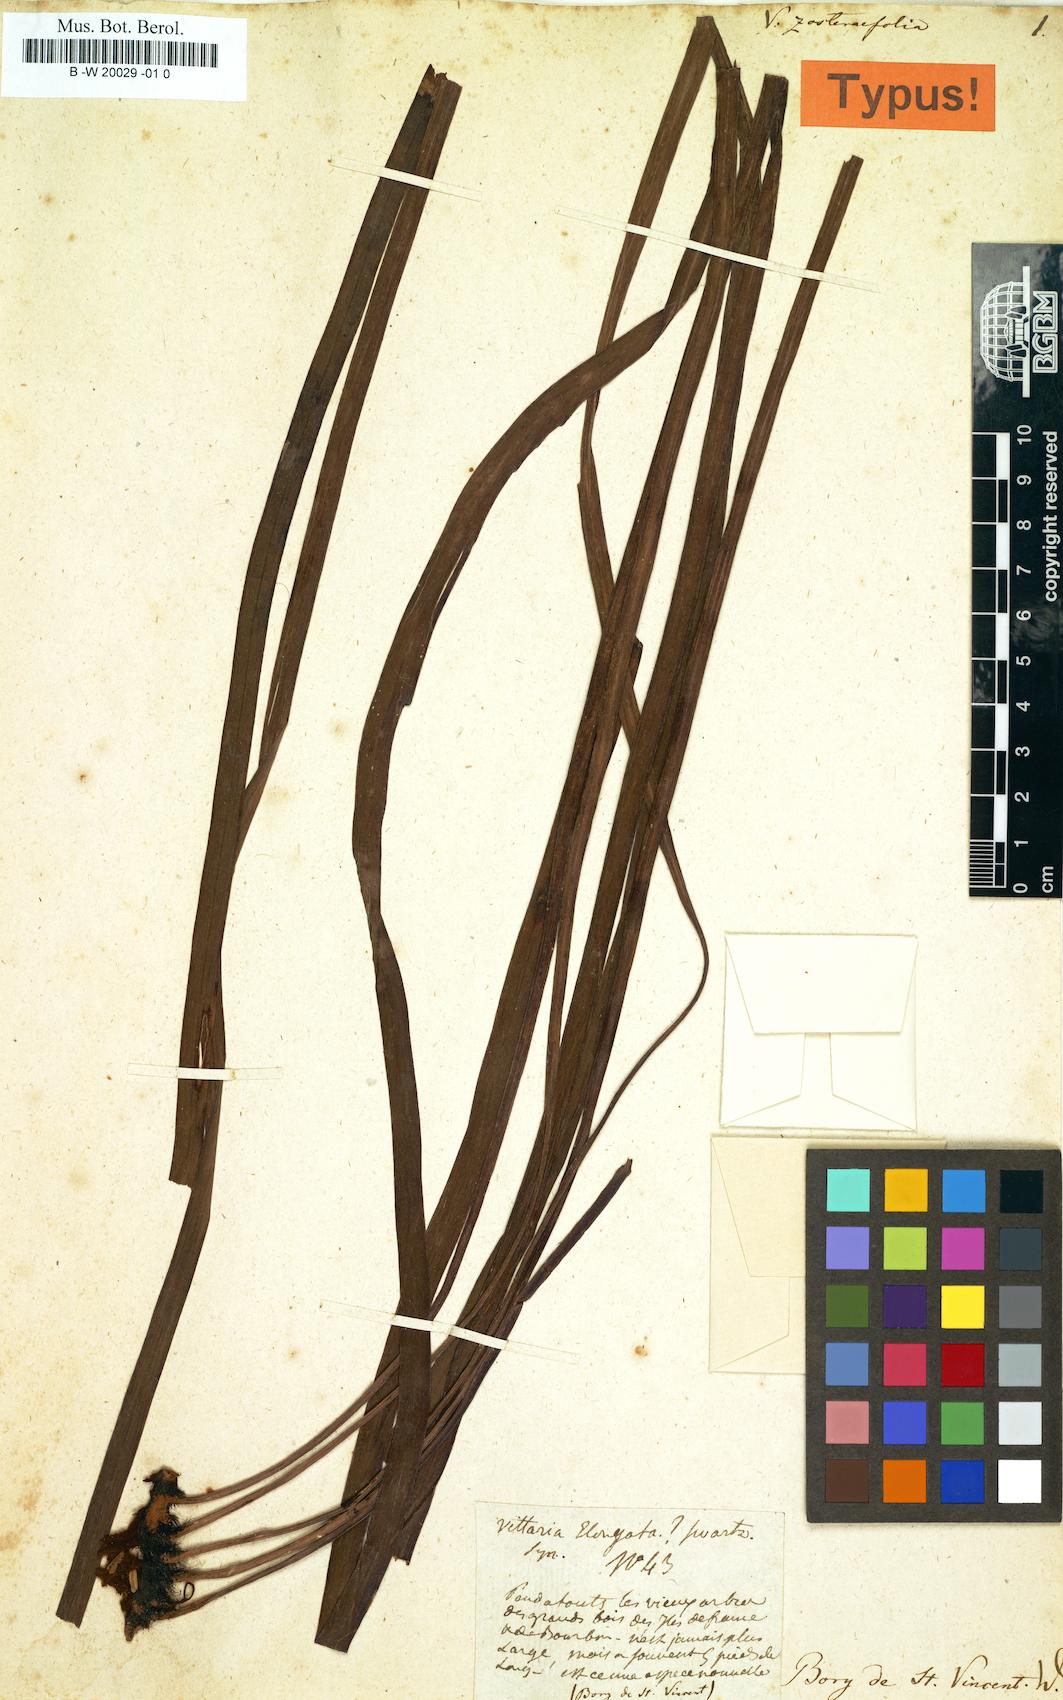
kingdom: Plantae
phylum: Tracheophyta
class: Polypodiopsida
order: Polypodiales
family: Pteridaceae
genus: Haplopteris
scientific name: Haplopteris zosterifolia
